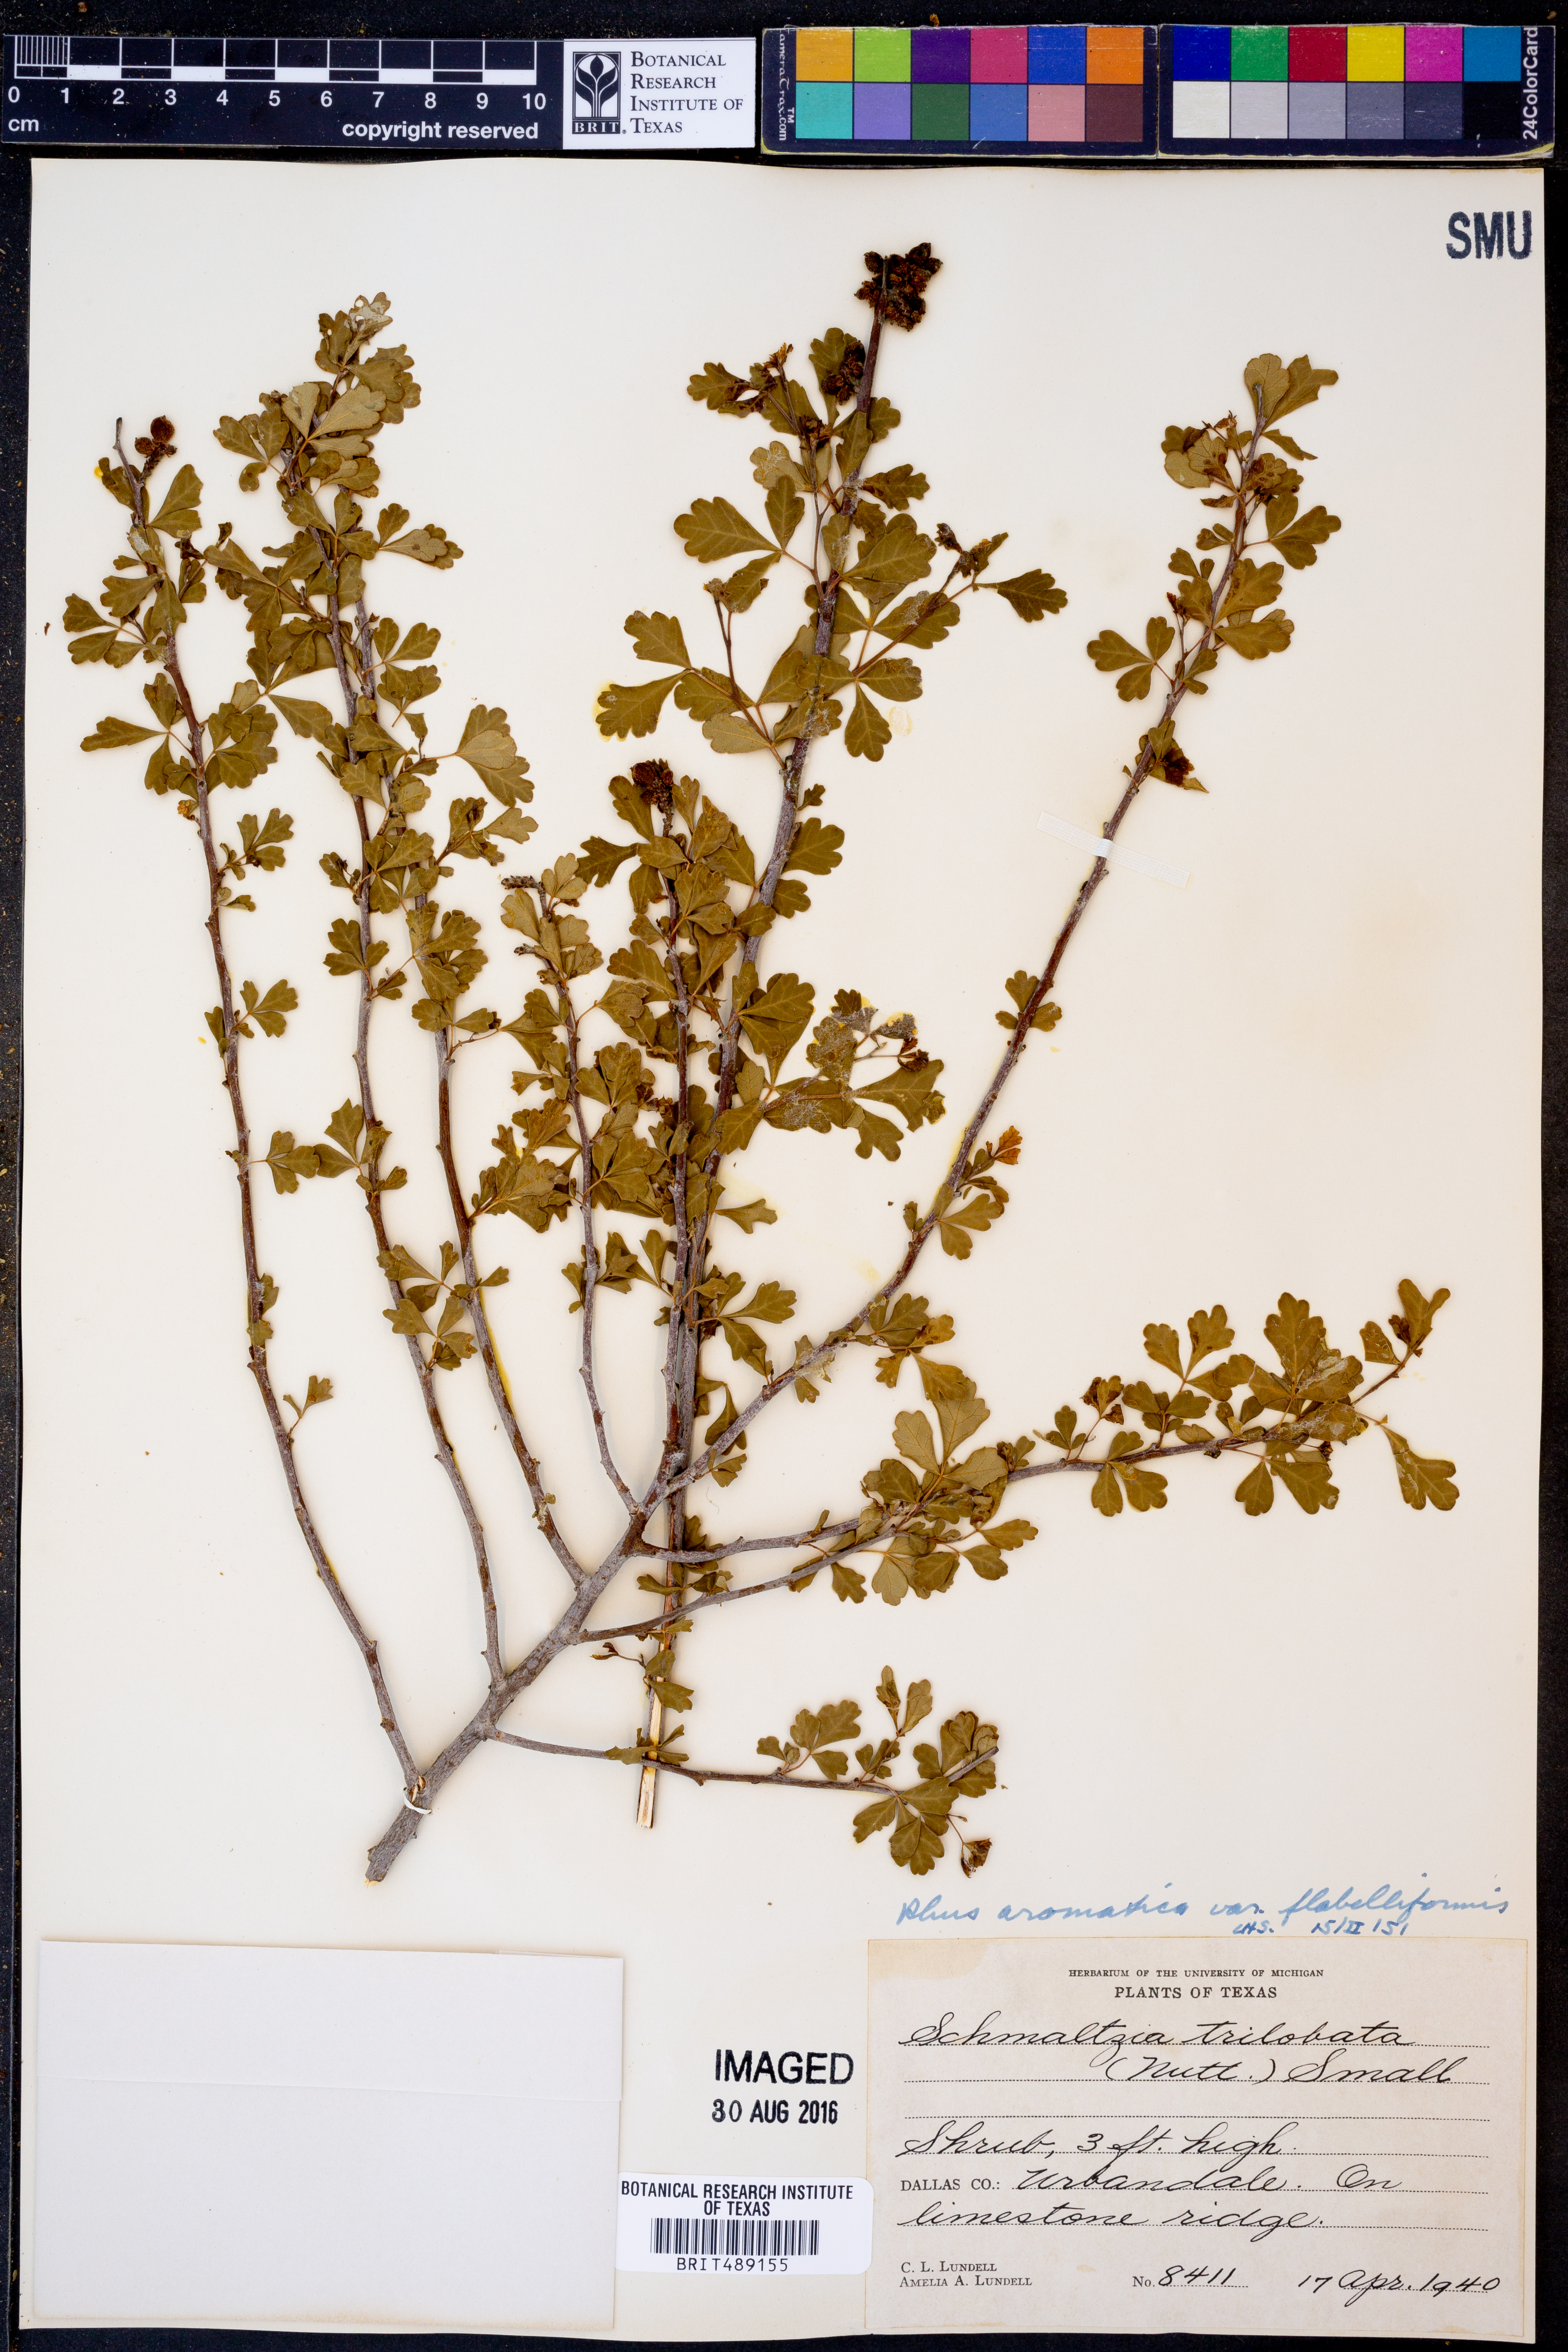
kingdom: Plantae
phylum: Tracheophyta
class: Magnoliopsida
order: Sapindales
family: Anacardiaceae
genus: Rhus
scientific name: Rhus trilobata
